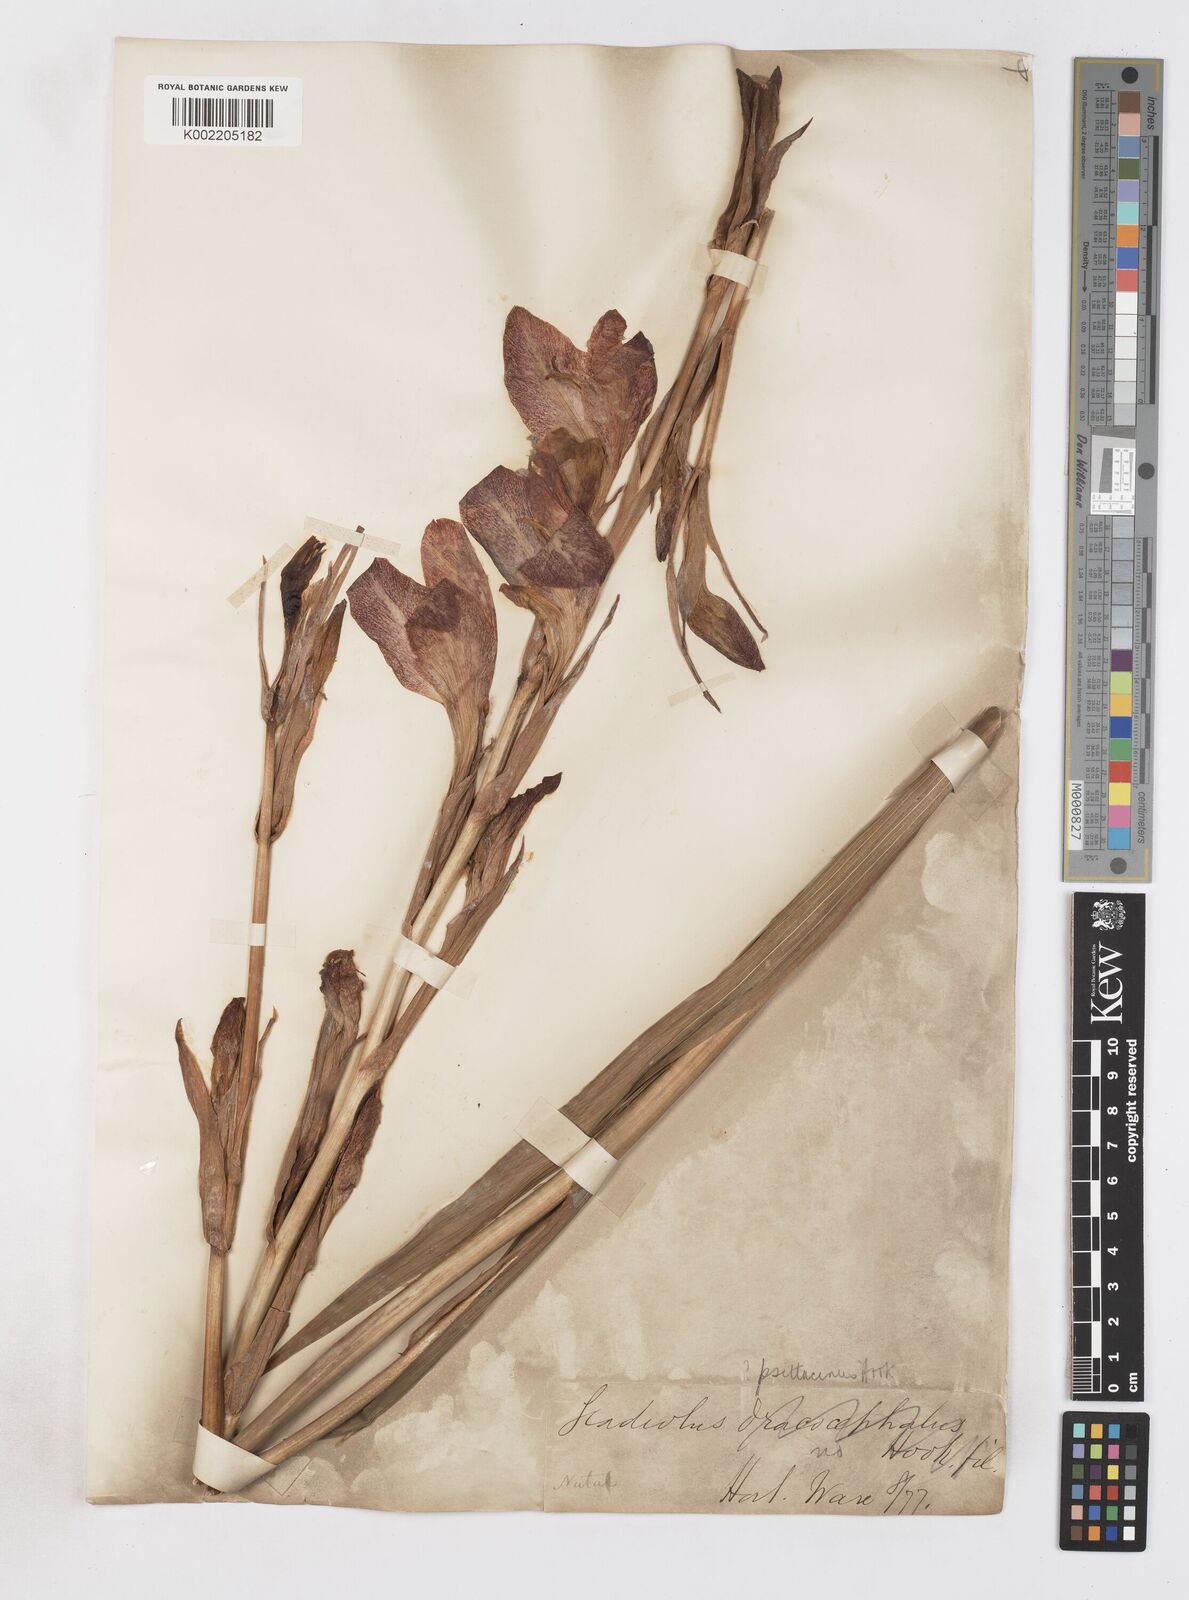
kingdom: Plantae
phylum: Tracheophyta
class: Liliopsida
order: Asparagales
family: Iridaceae
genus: Gladiolus
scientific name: Gladiolus dalenii
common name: Cornflag
